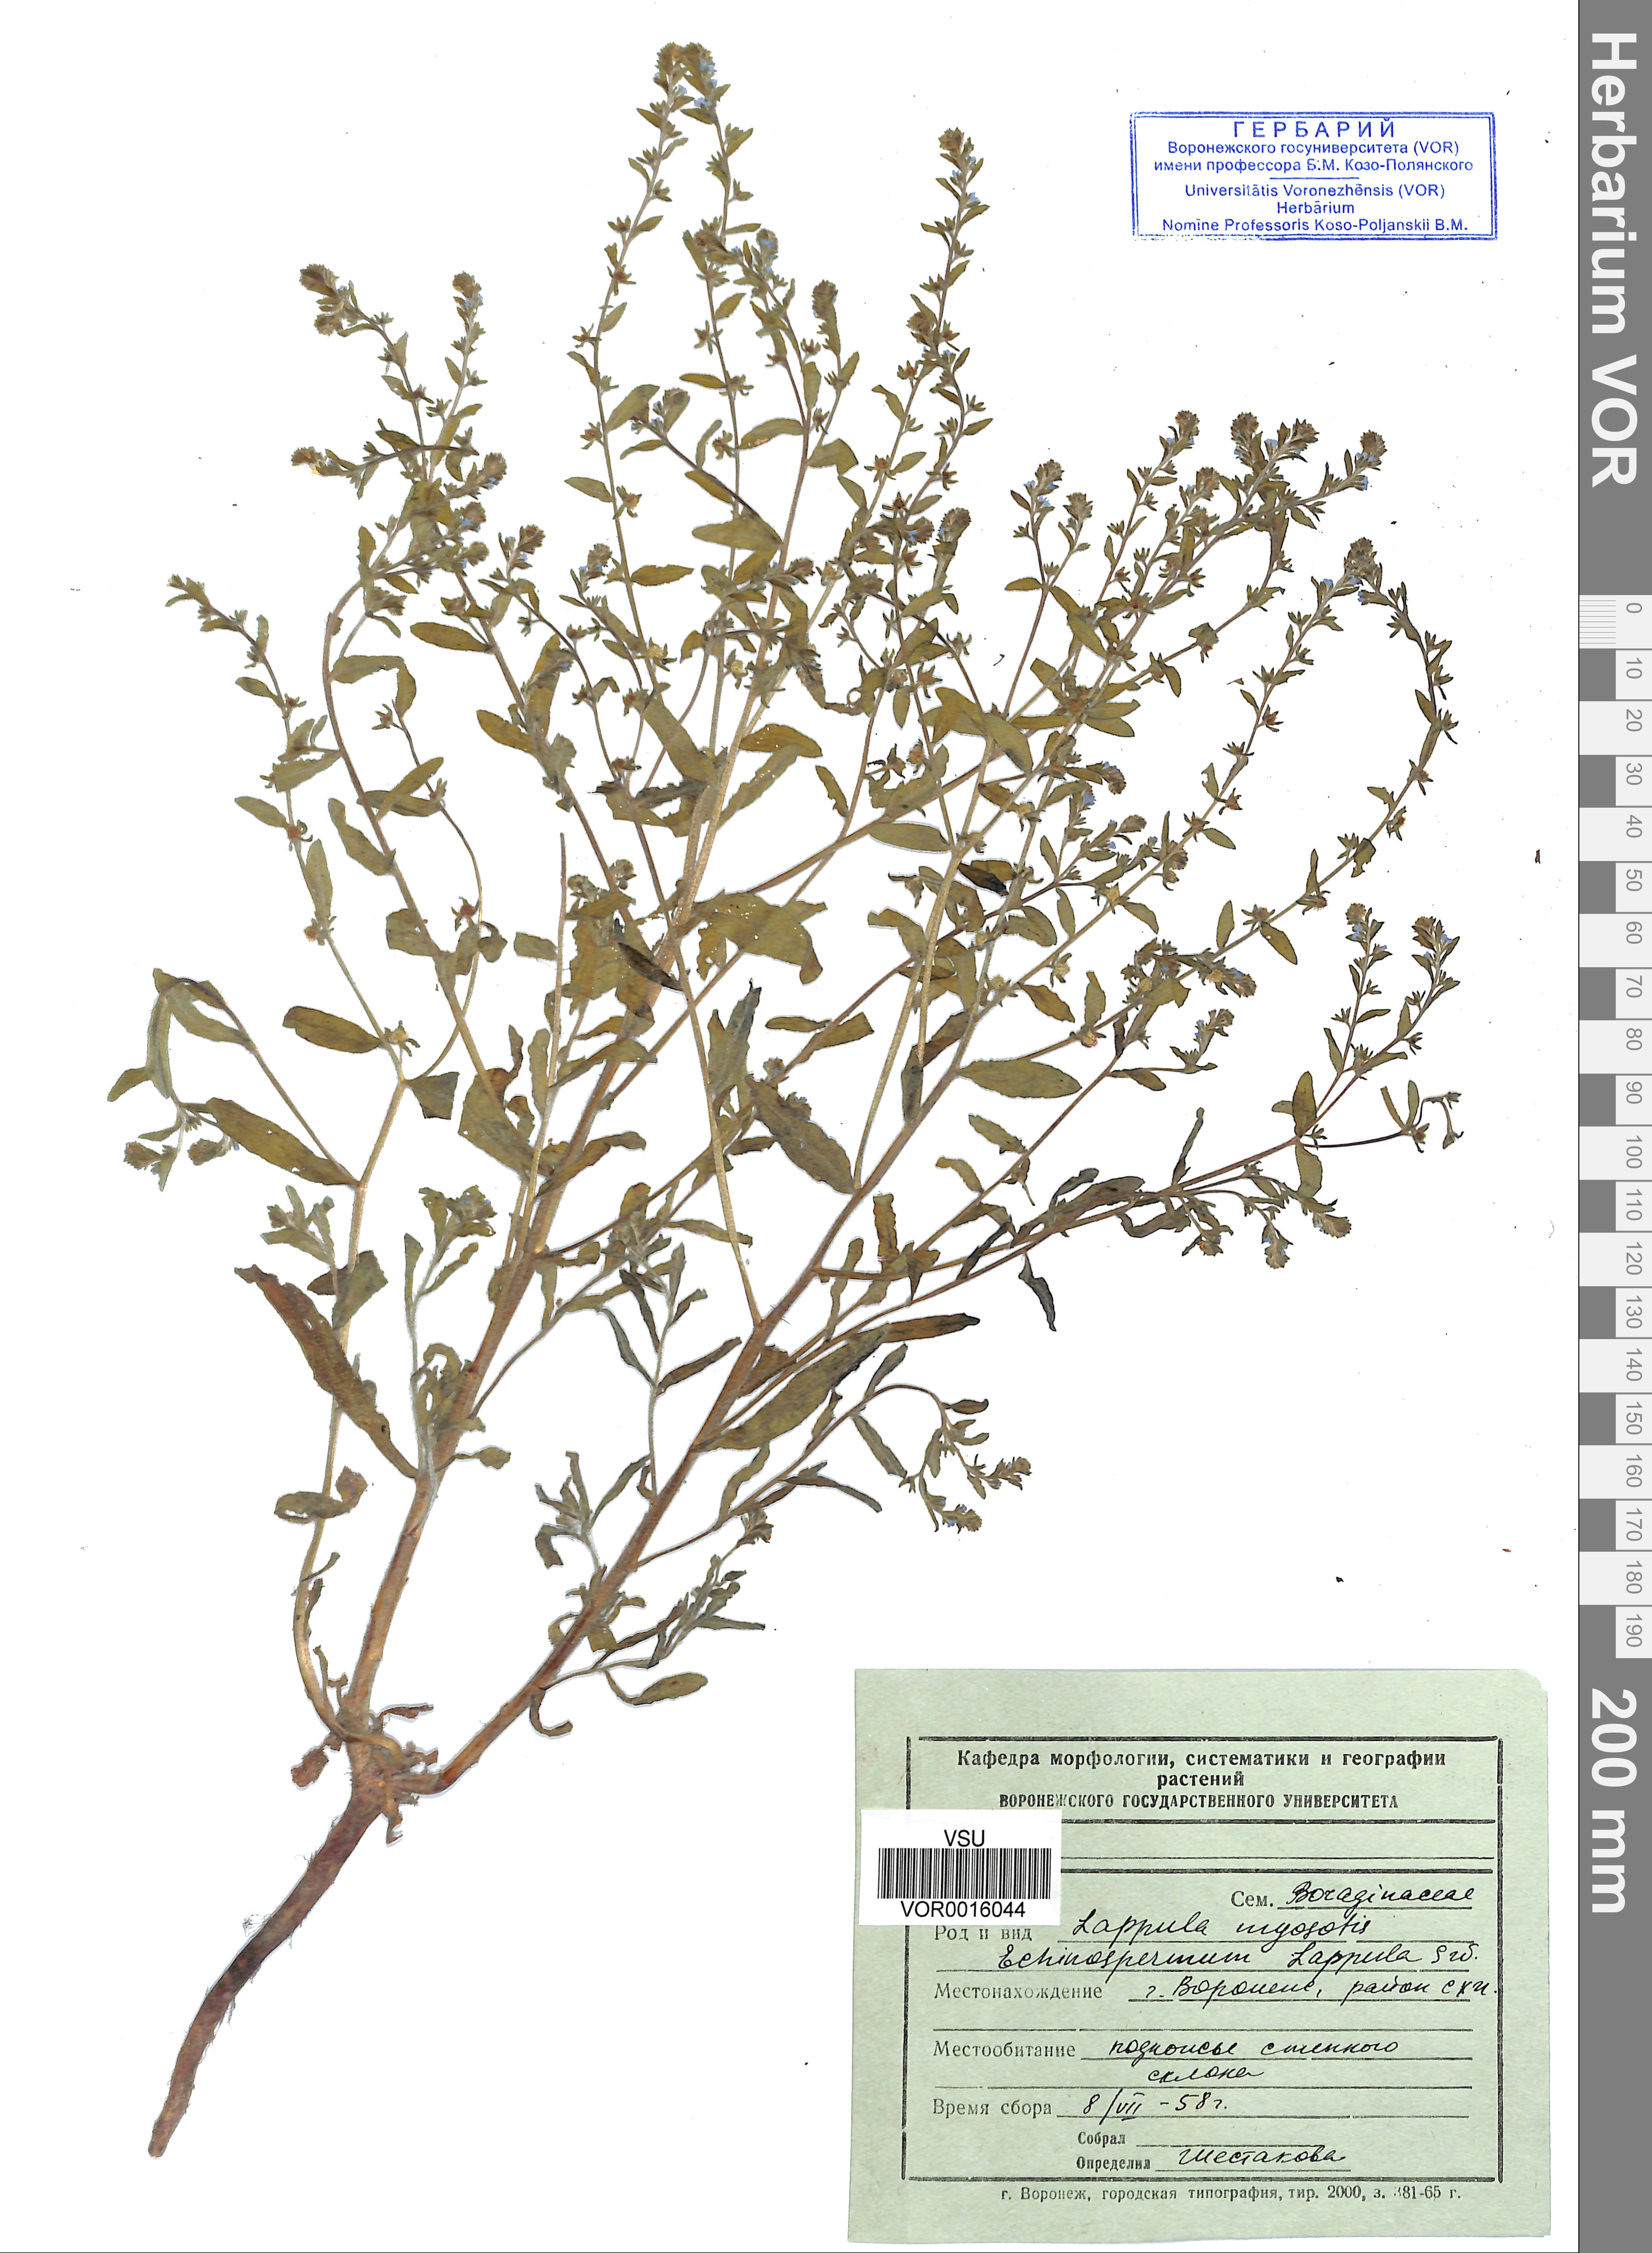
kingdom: Plantae
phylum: Tracheophyta
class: Magnoliopsida
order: Boraginales
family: Boraginaceae
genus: Lappula
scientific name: Lappula squarrosa
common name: European stickseed
